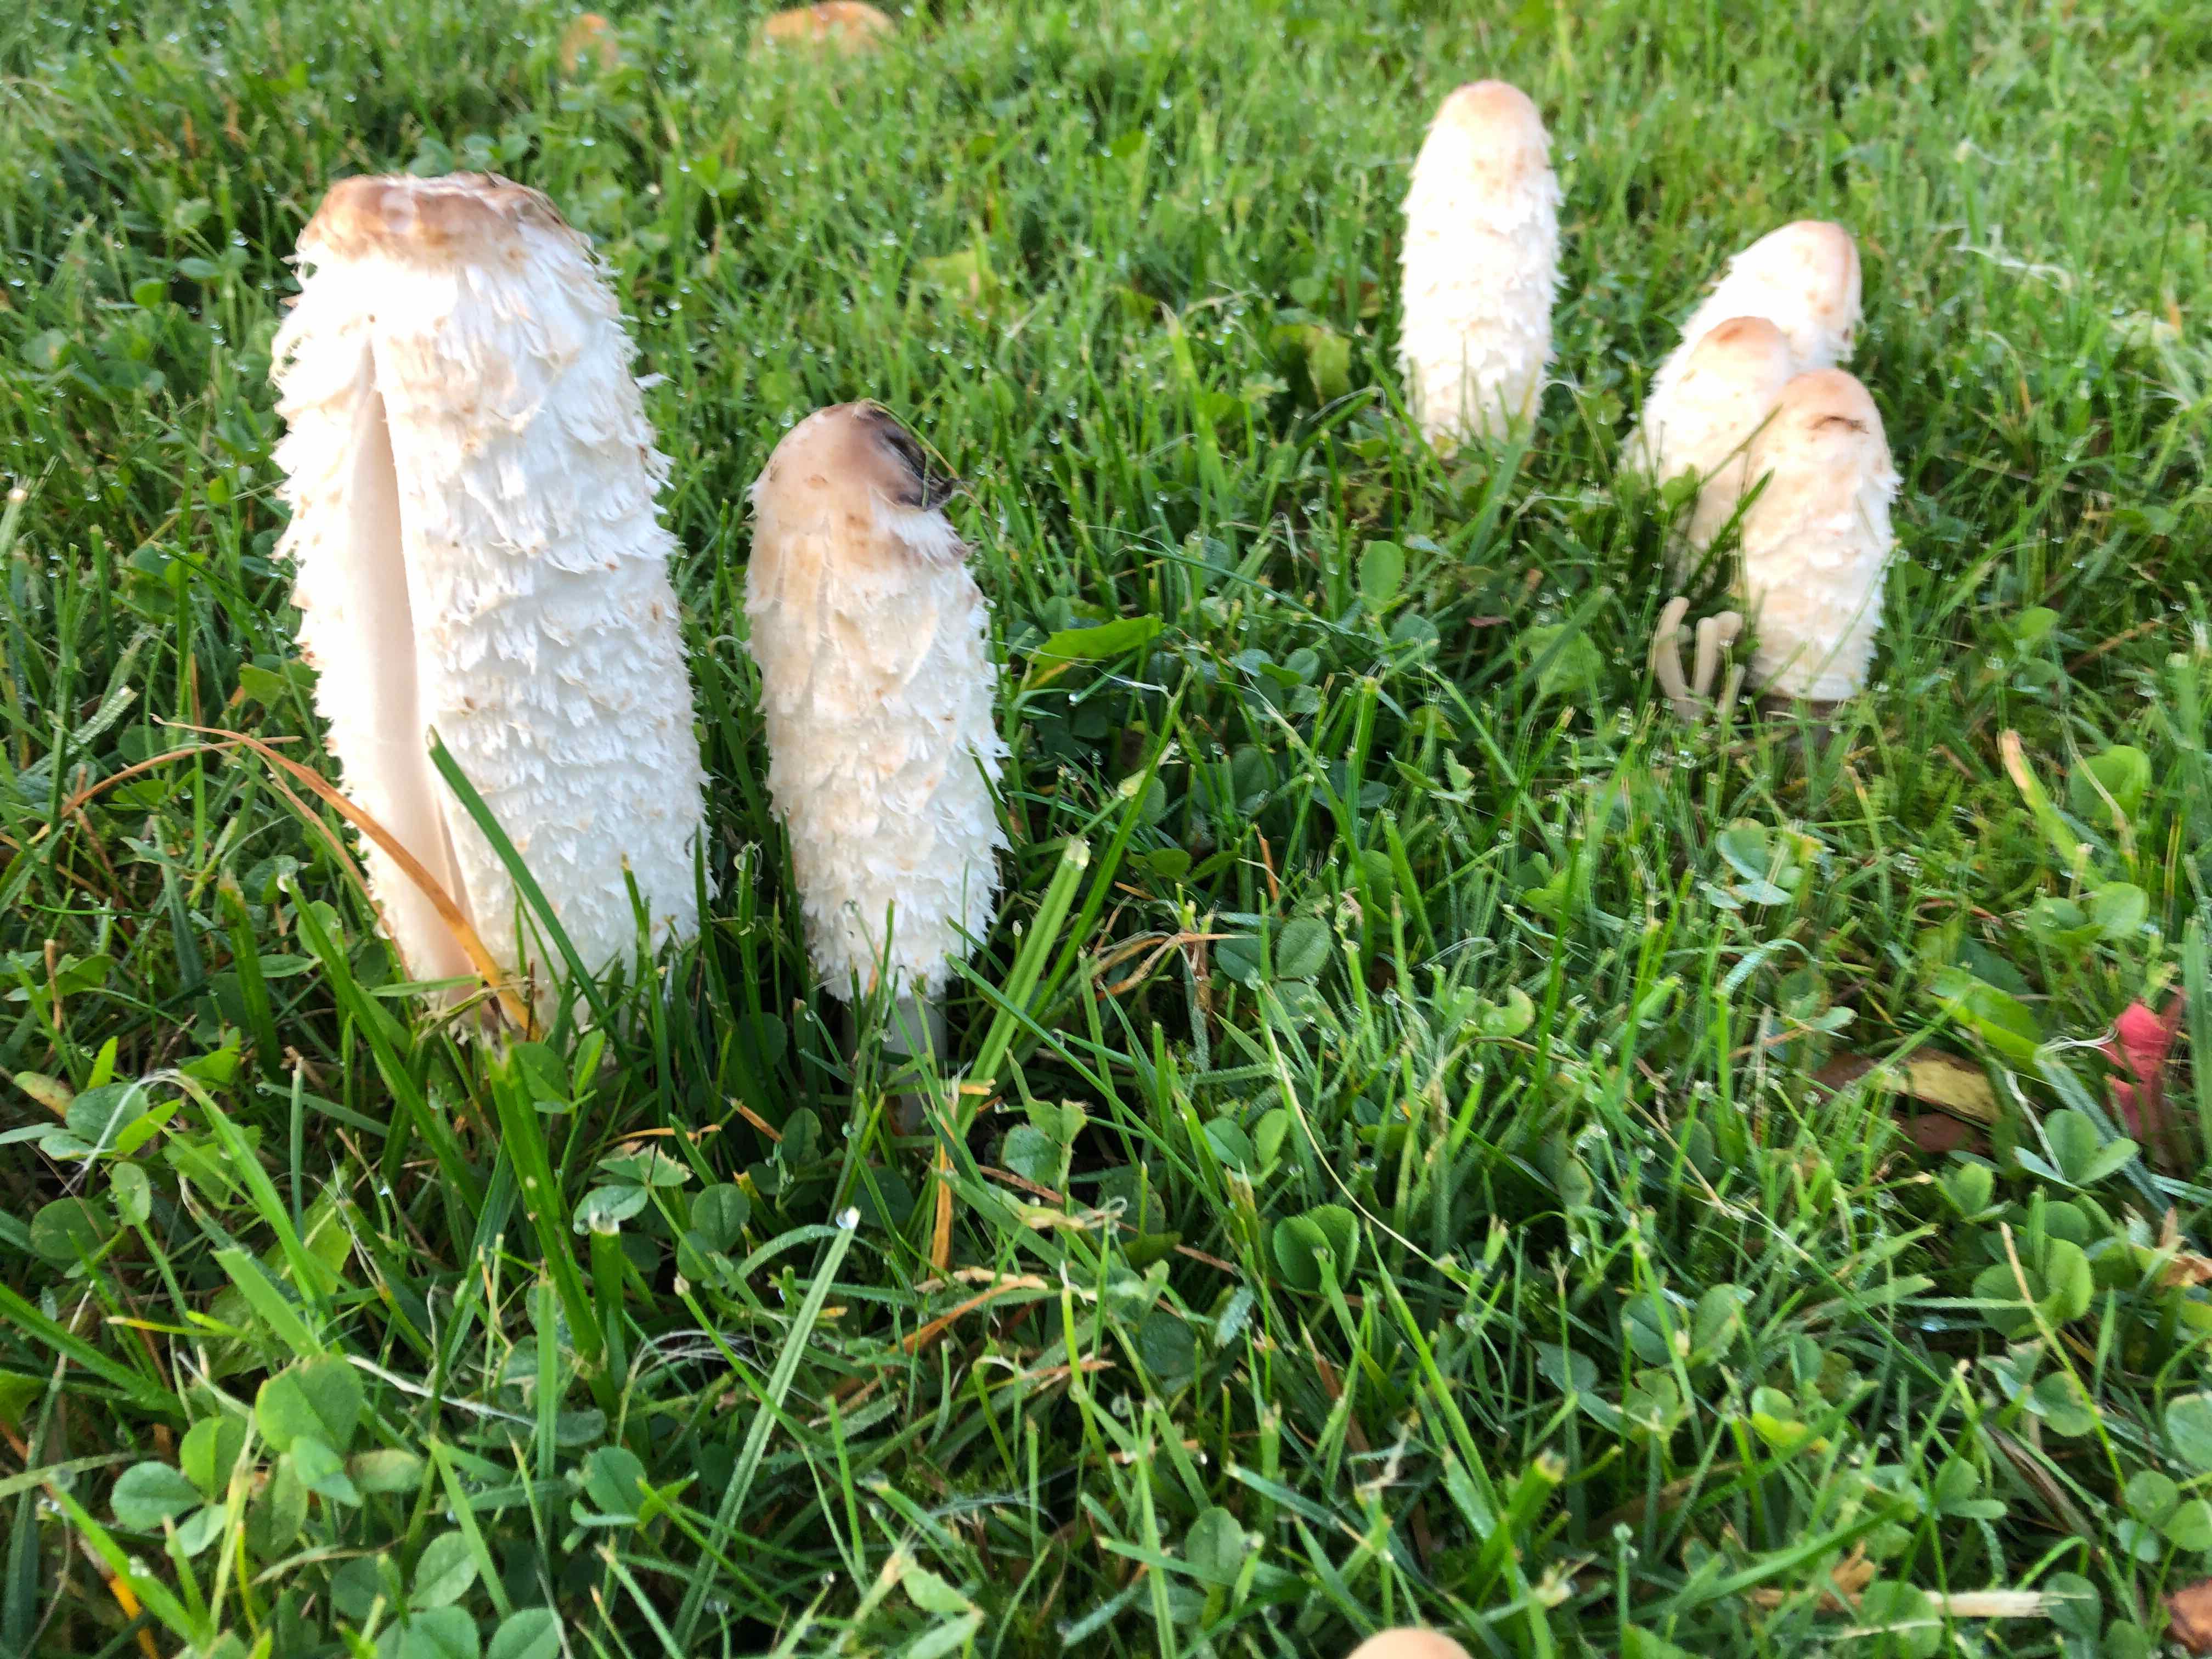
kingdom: Fungi
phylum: Basidiomycota
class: Agaricomycetes
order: Agaricales
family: Agaricaceae
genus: Coprinus
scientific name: Coprinus comatus
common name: stor parykhat
